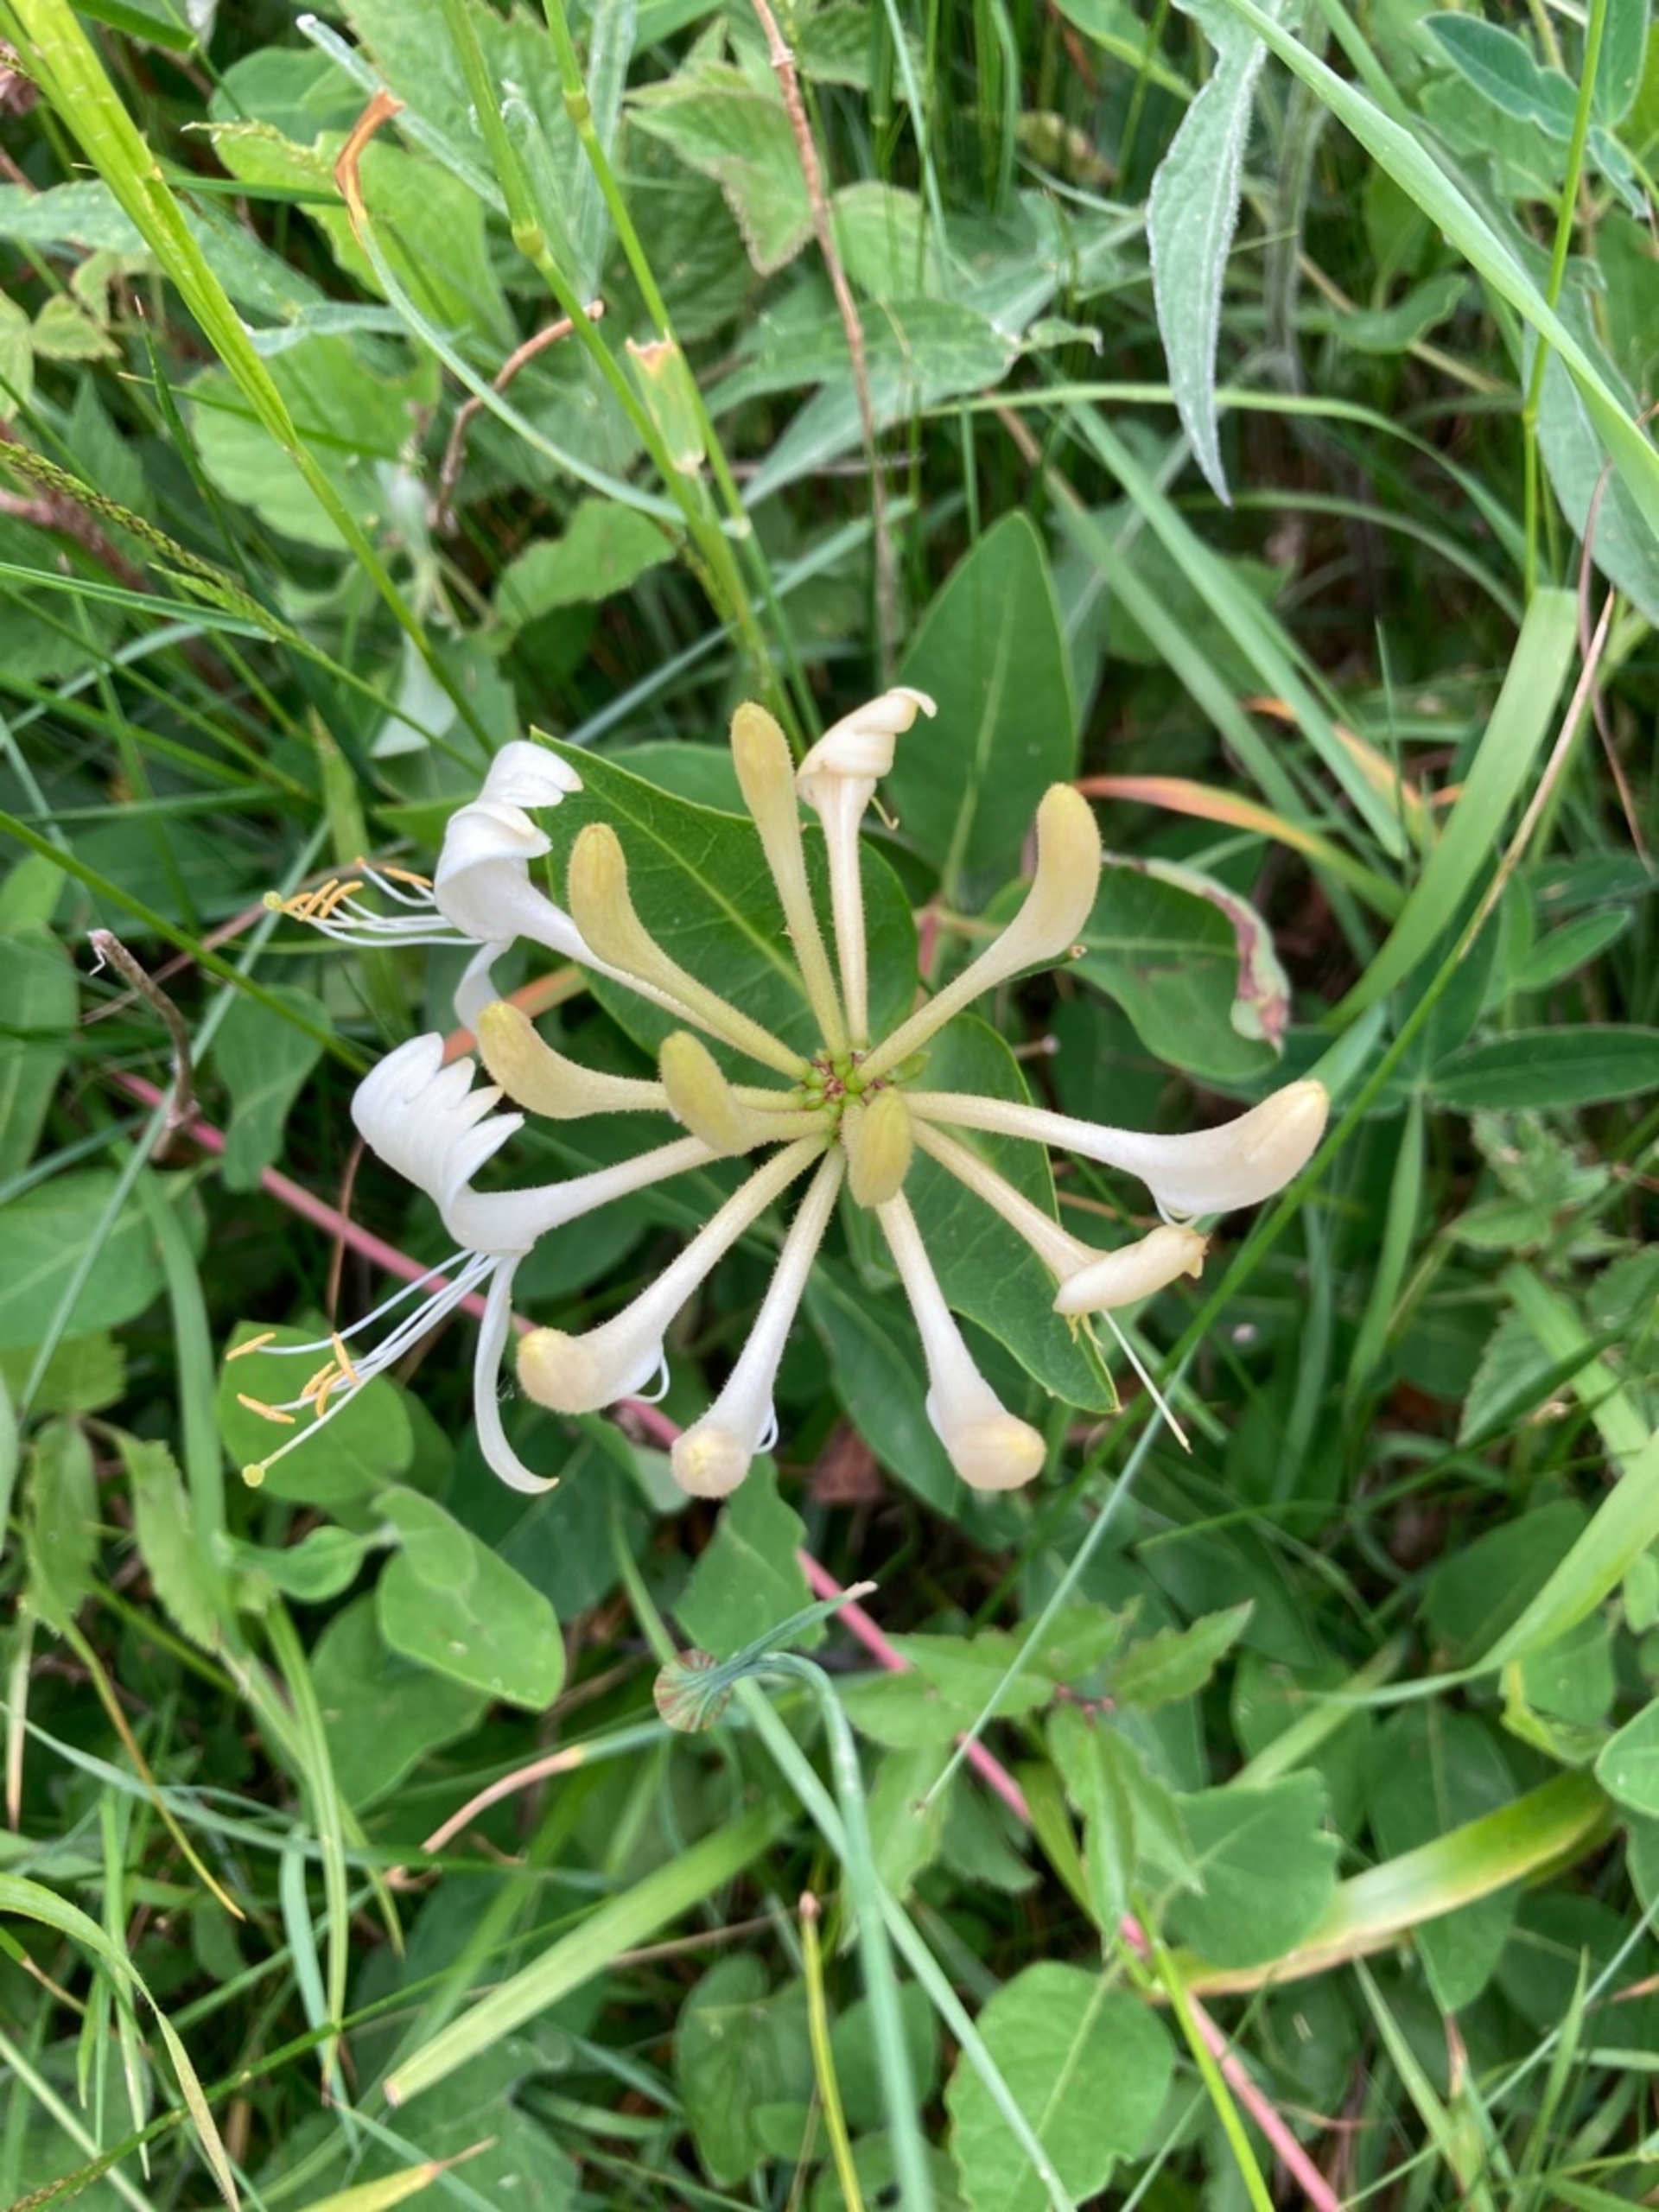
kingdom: Plantae
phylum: Tracheophyta
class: Magnoliopsida
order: Dipsacales
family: Caprifoliaceae
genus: Lonicera
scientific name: Lonicera periclymenum
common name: Almindelig gedeblad
